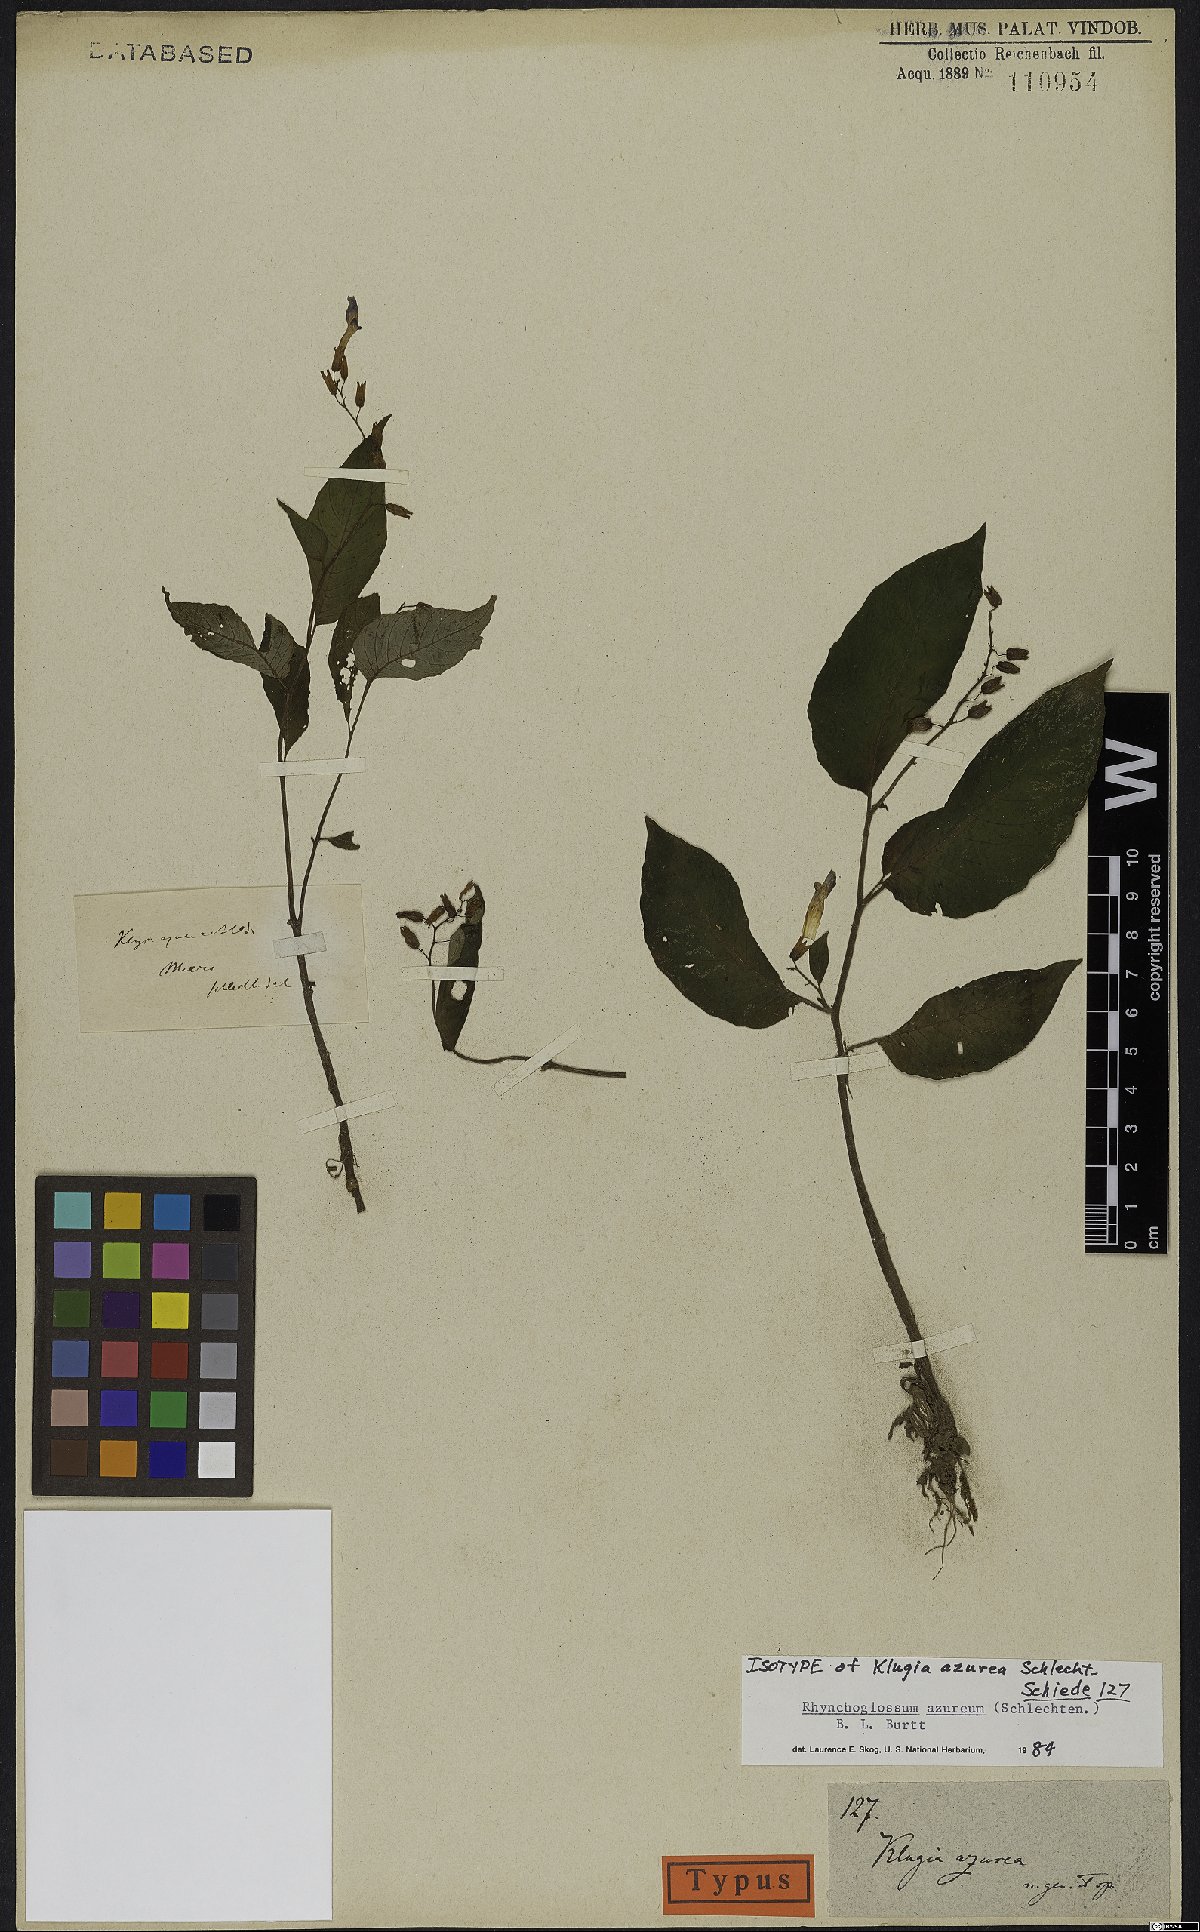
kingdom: Plantae
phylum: Tracheophyta
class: Magnoliopsida
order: Lamiales
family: Gesneriaceae
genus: Rhynchoglossum
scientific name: Rhynchoglossum azureum
